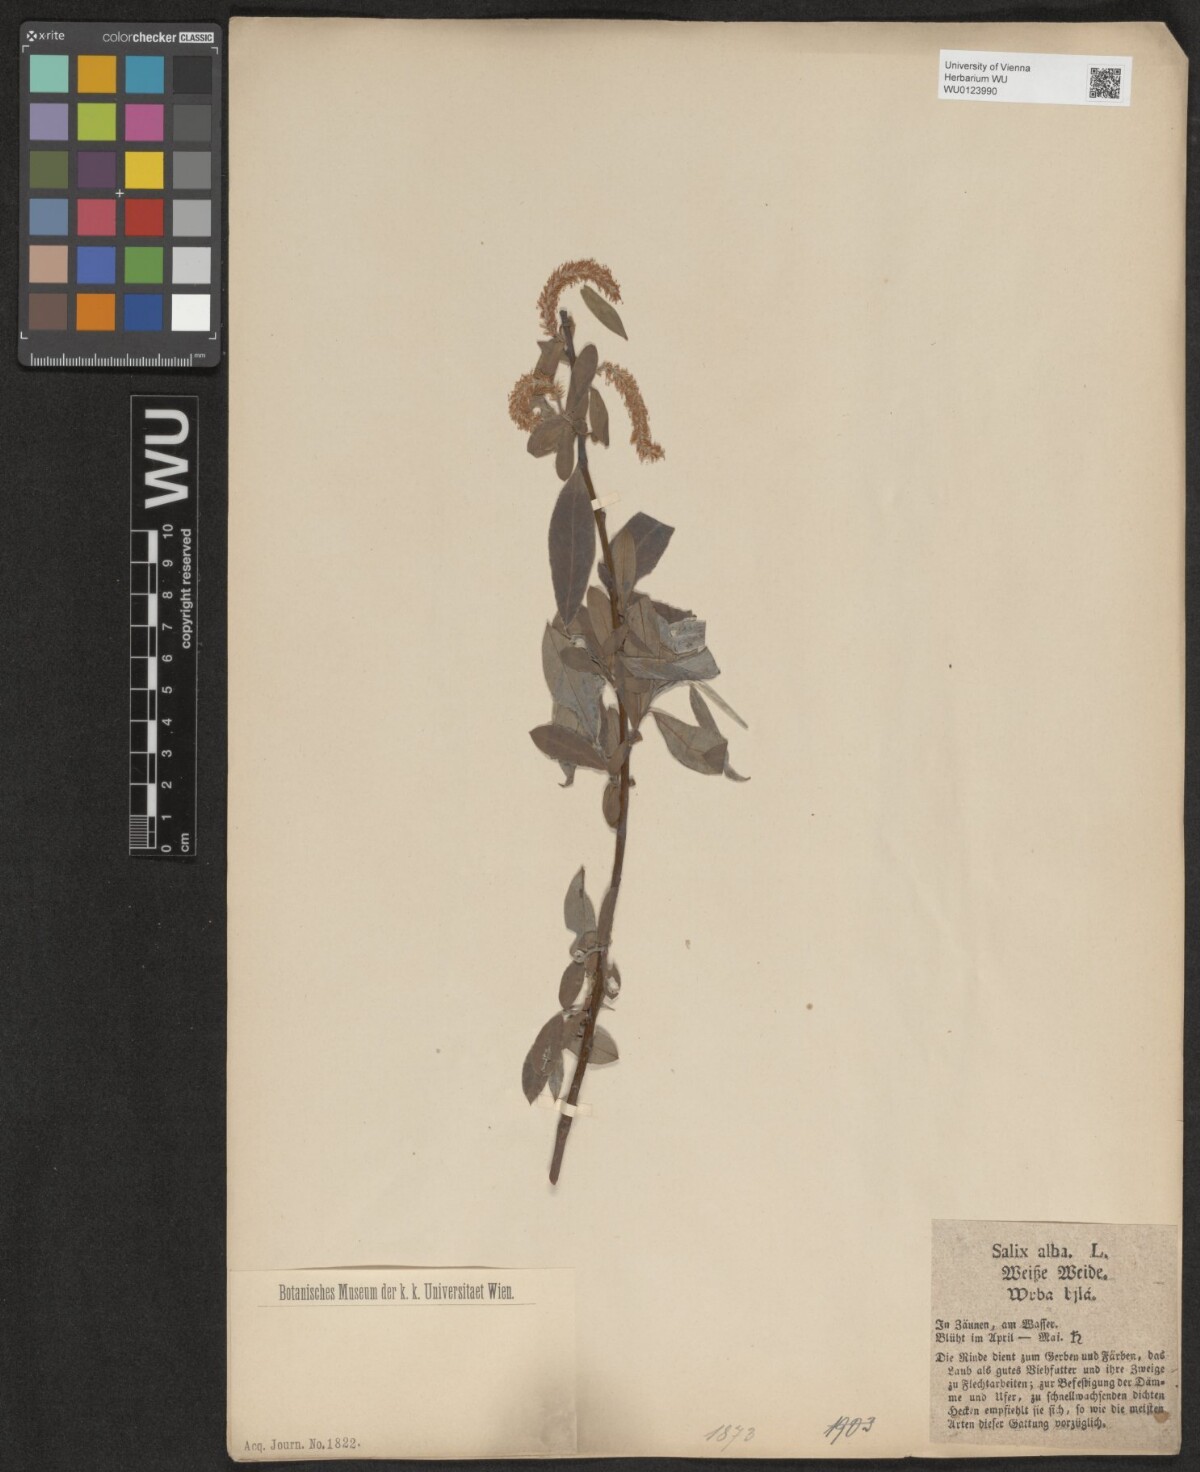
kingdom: Plantae
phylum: Tracheophyta
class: Magnoliopsida
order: Malpighiales
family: Salicaceae
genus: Salix
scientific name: Salix alba
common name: White willow
